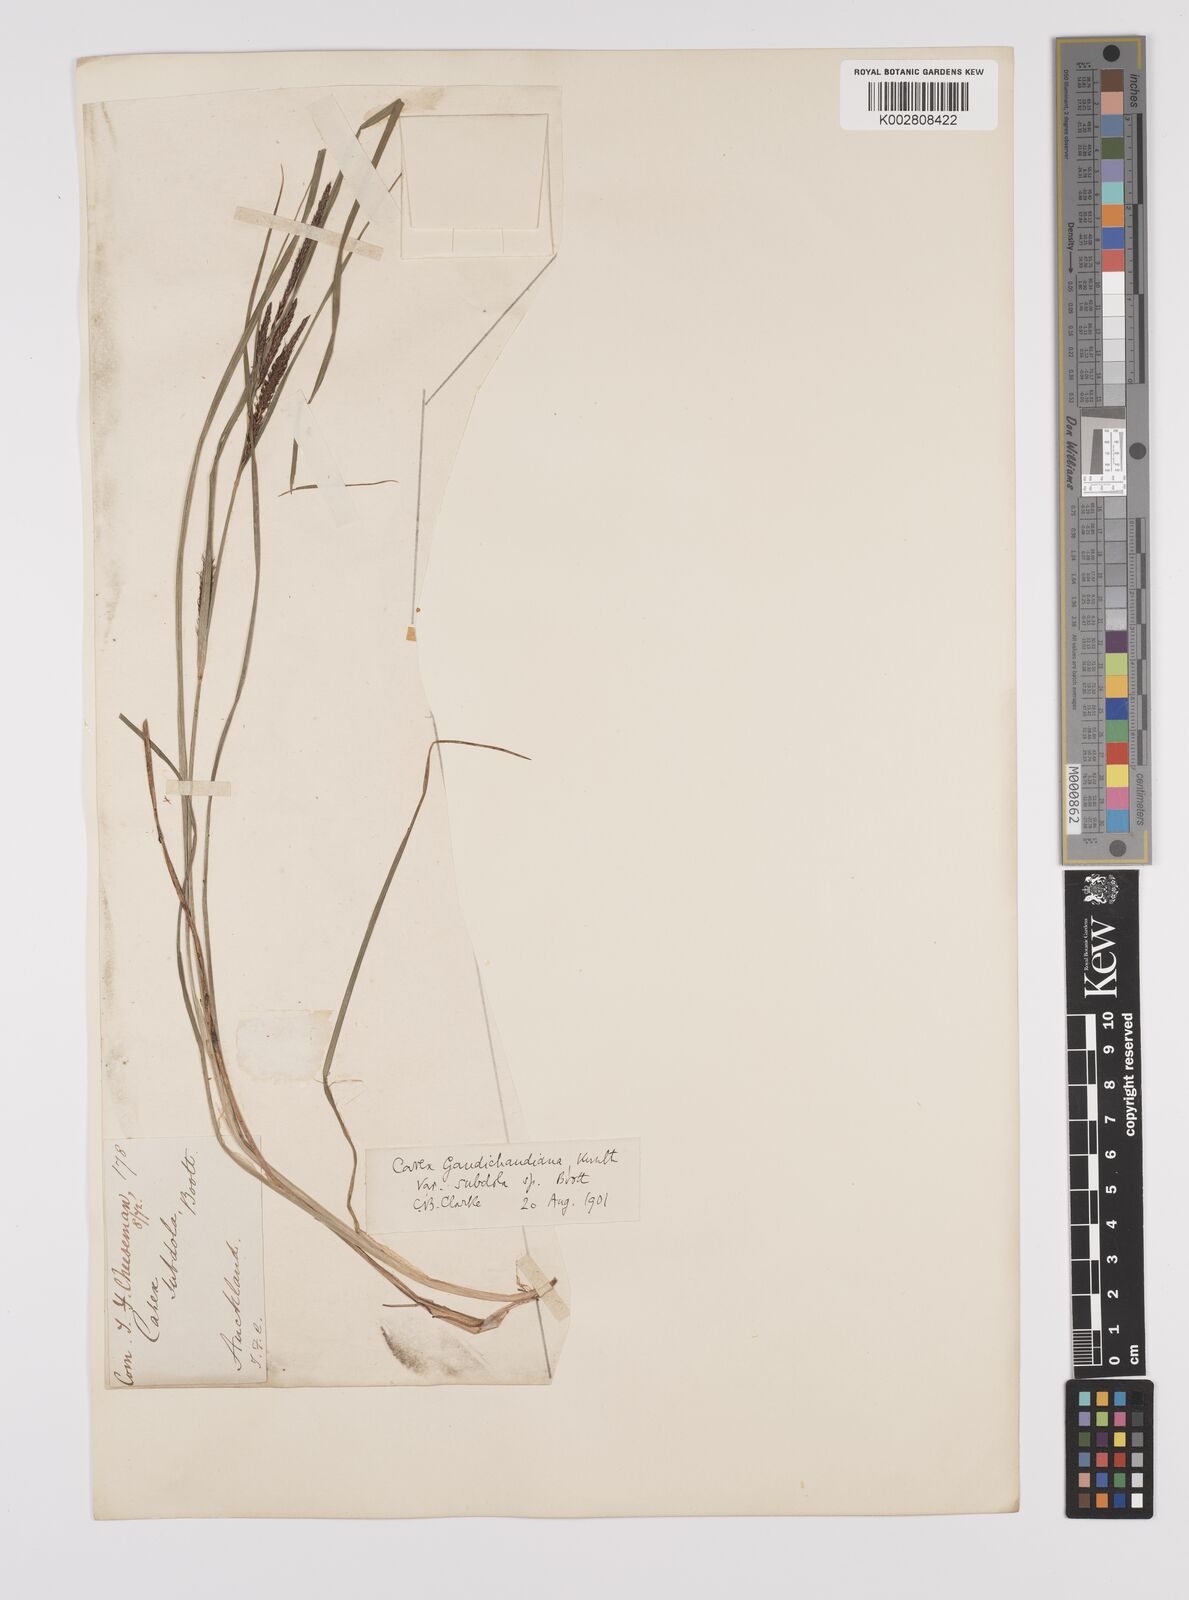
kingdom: Plantae
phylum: Tracheophyta
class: Liliopsida
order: Poales
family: Cyperaceae
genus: Carex
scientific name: Carex subdola
